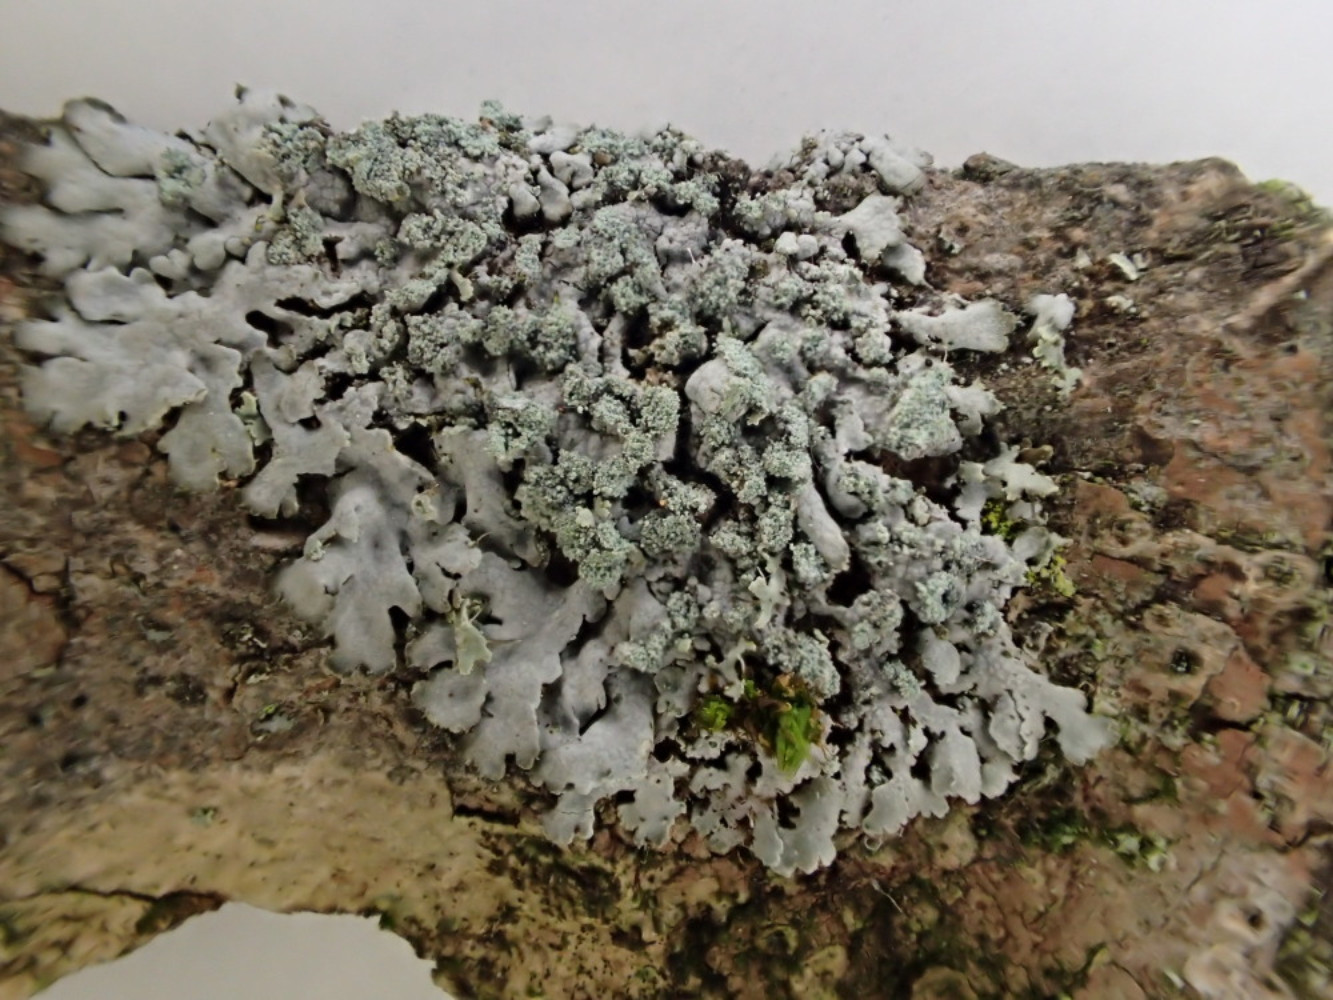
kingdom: Fungi
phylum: Ascomycota
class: Lecanoromycetes
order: Caliciales
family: Physciaceae
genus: Phaeophyscia
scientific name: Phaeophyscia orbicularis
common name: grågrøn rosetlav
